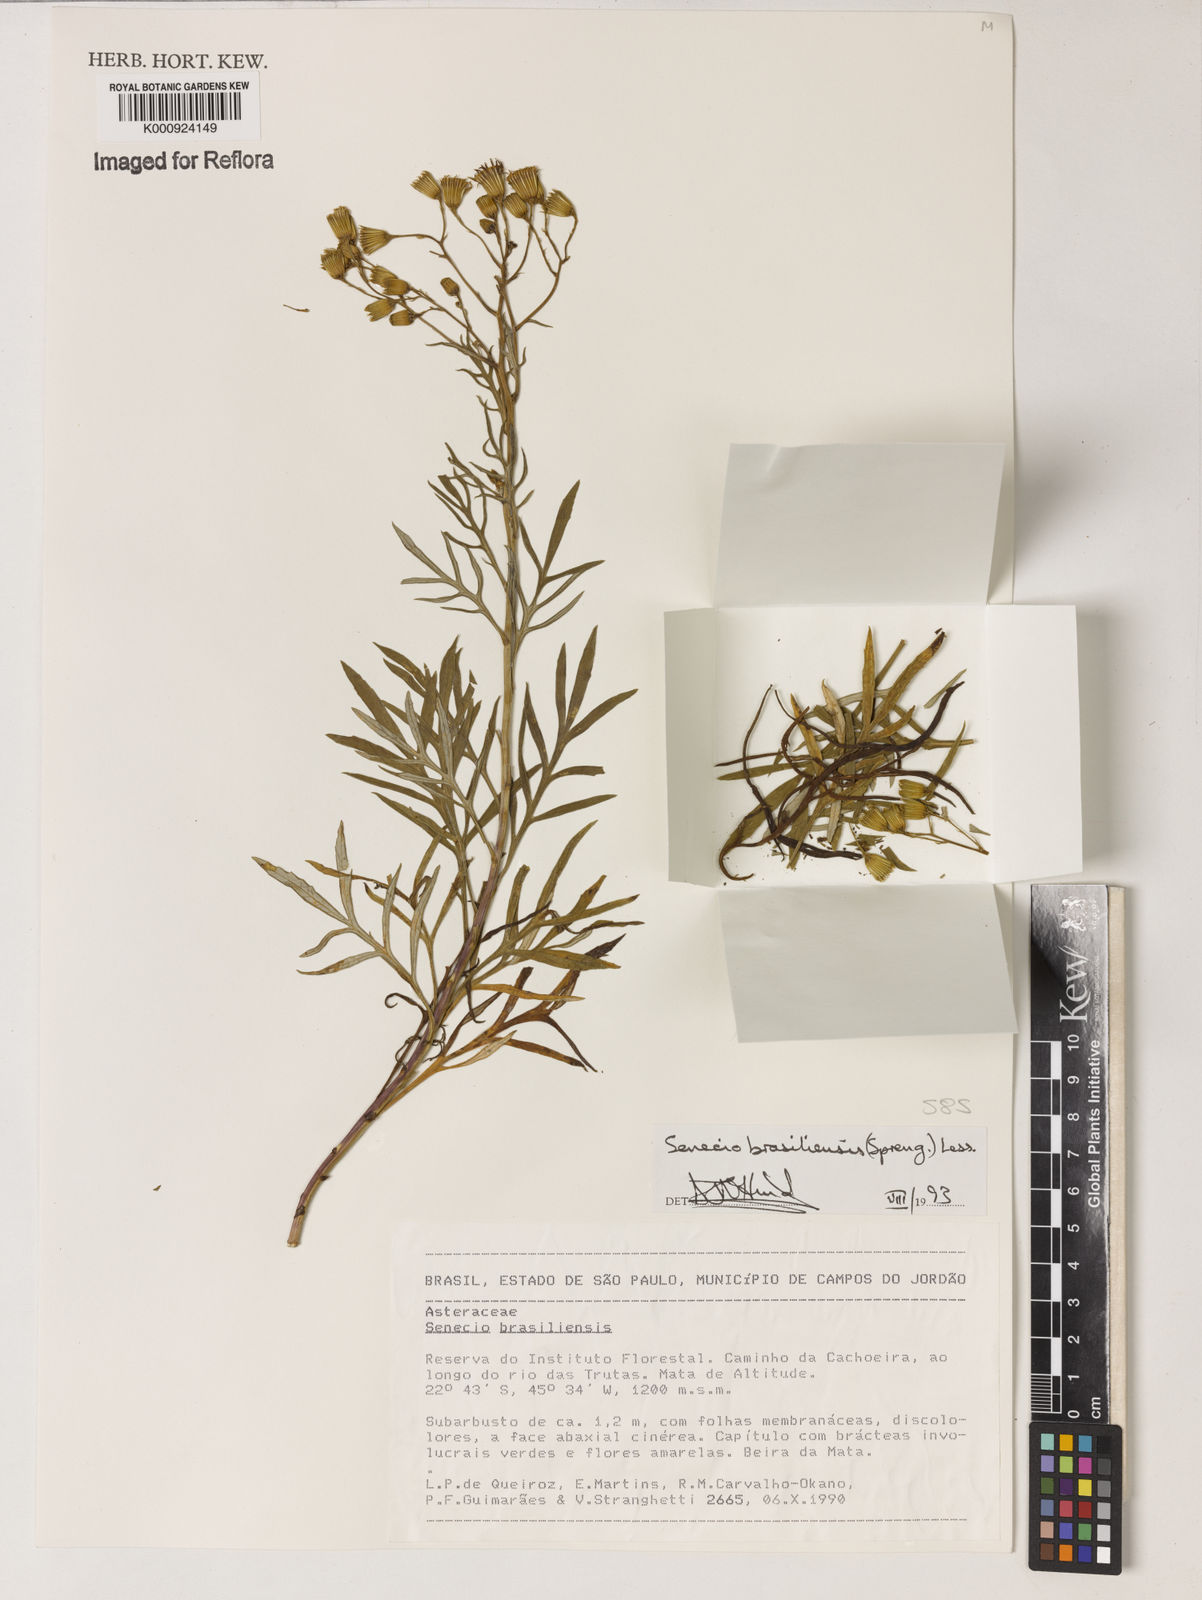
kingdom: Plantae
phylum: Tracheophyta
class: Magnoliopsida
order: Asterales
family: Asteraceae
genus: Senecio
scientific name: Senecio brasiliensis
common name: Hemp-leaf ragwort
